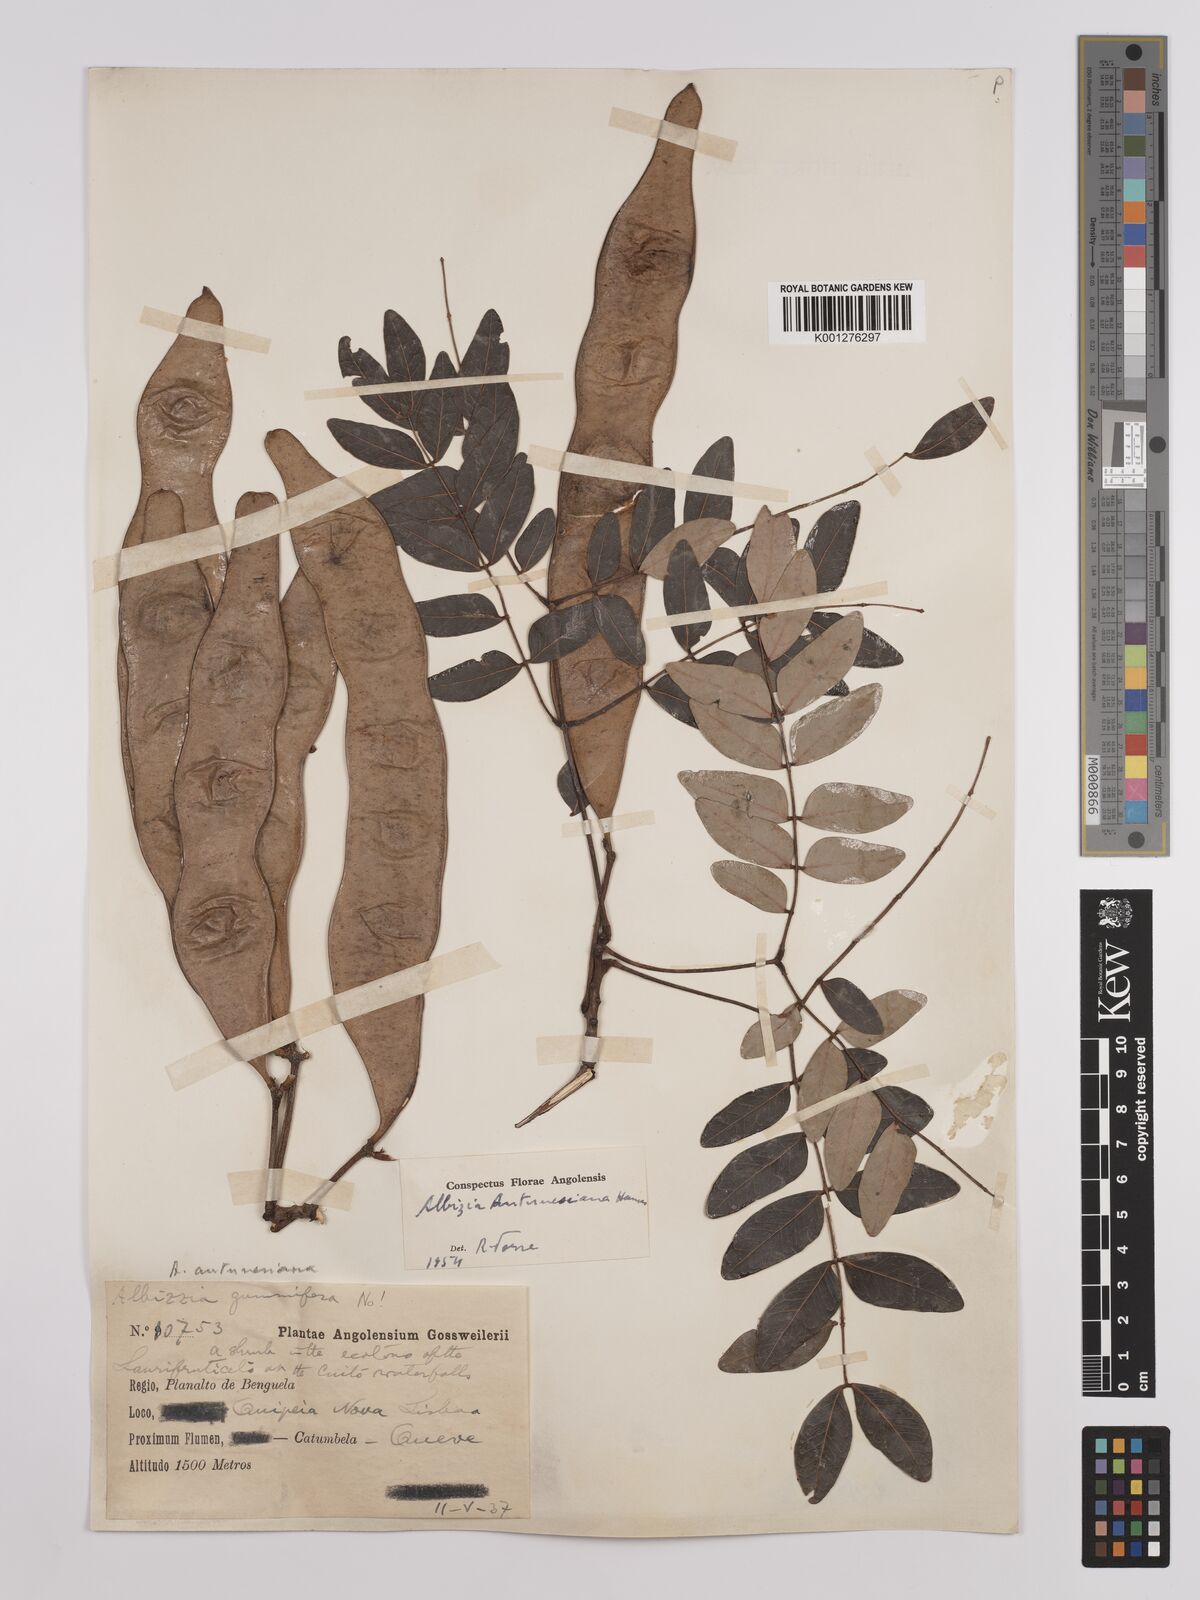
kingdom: Plantae
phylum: Tracheophyta
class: Magnoliopsida
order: Fabales
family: Fabaceae
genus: Albizia
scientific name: Albizia antunesiana
